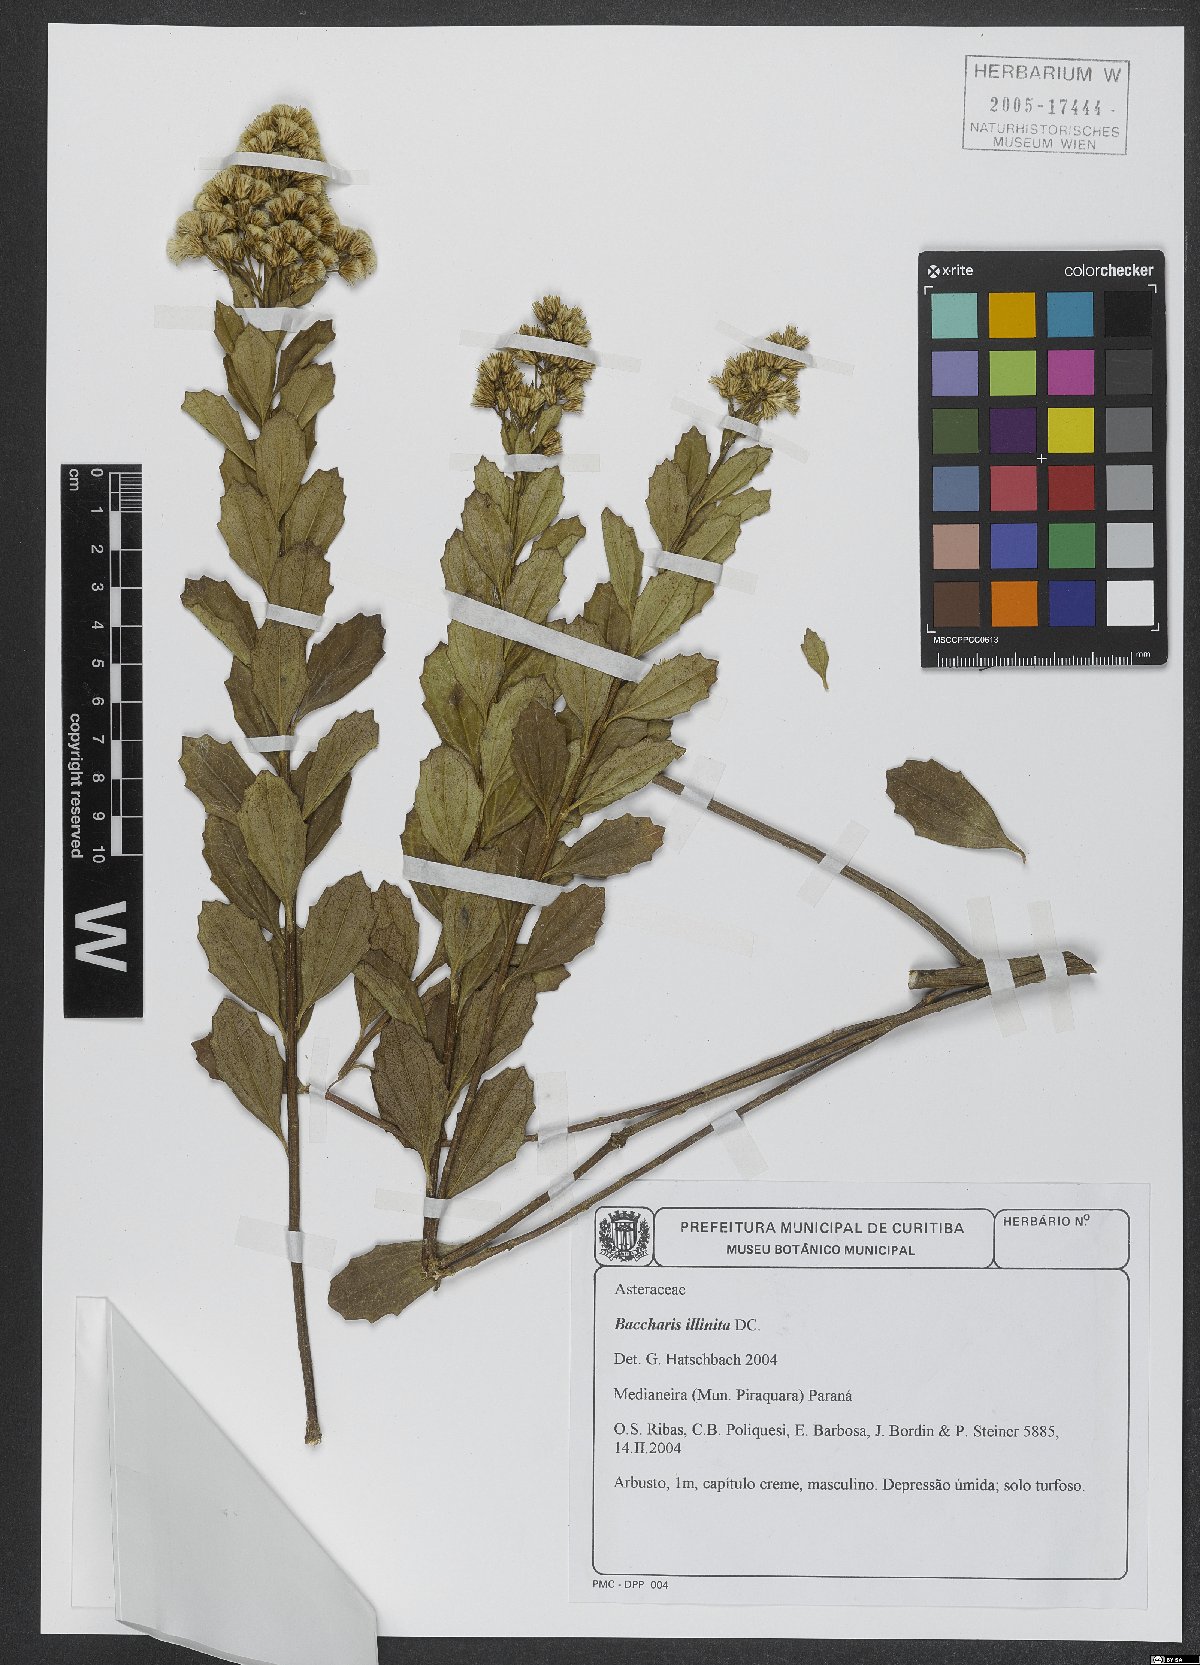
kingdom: Plantae
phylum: Tracheophyta
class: Magnoliopsida
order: Asterales
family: Asteraceae
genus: Baccharis
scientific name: Baccharis tridentata
